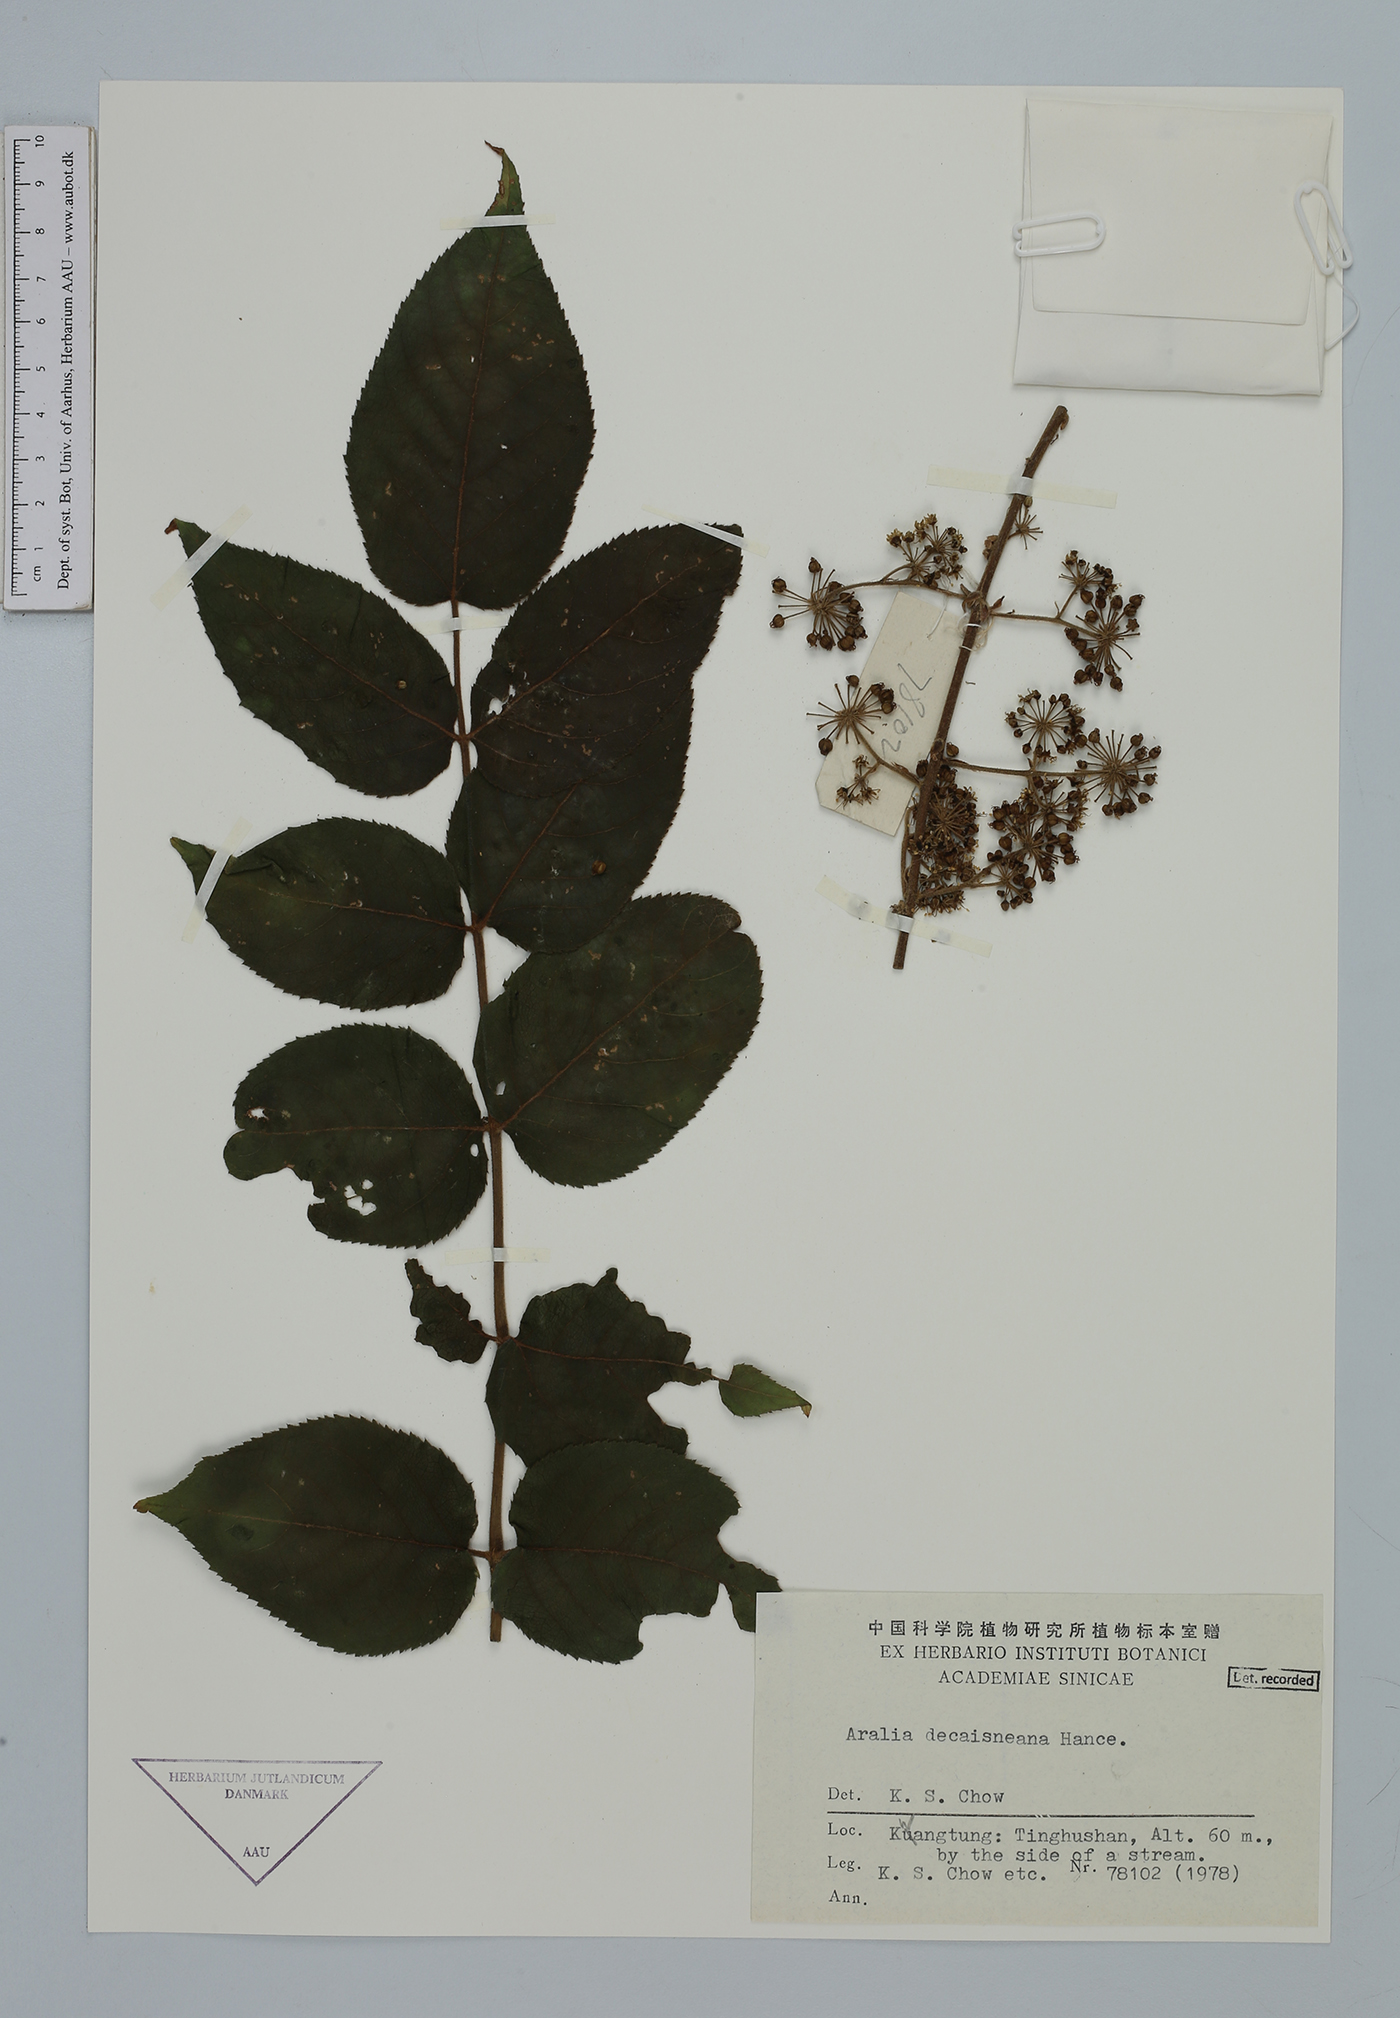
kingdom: Plantae
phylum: Tracheophyta
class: Magnoliopsida
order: Apiales
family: Araliaceae
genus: Aralia
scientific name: Aralia decaisneana
